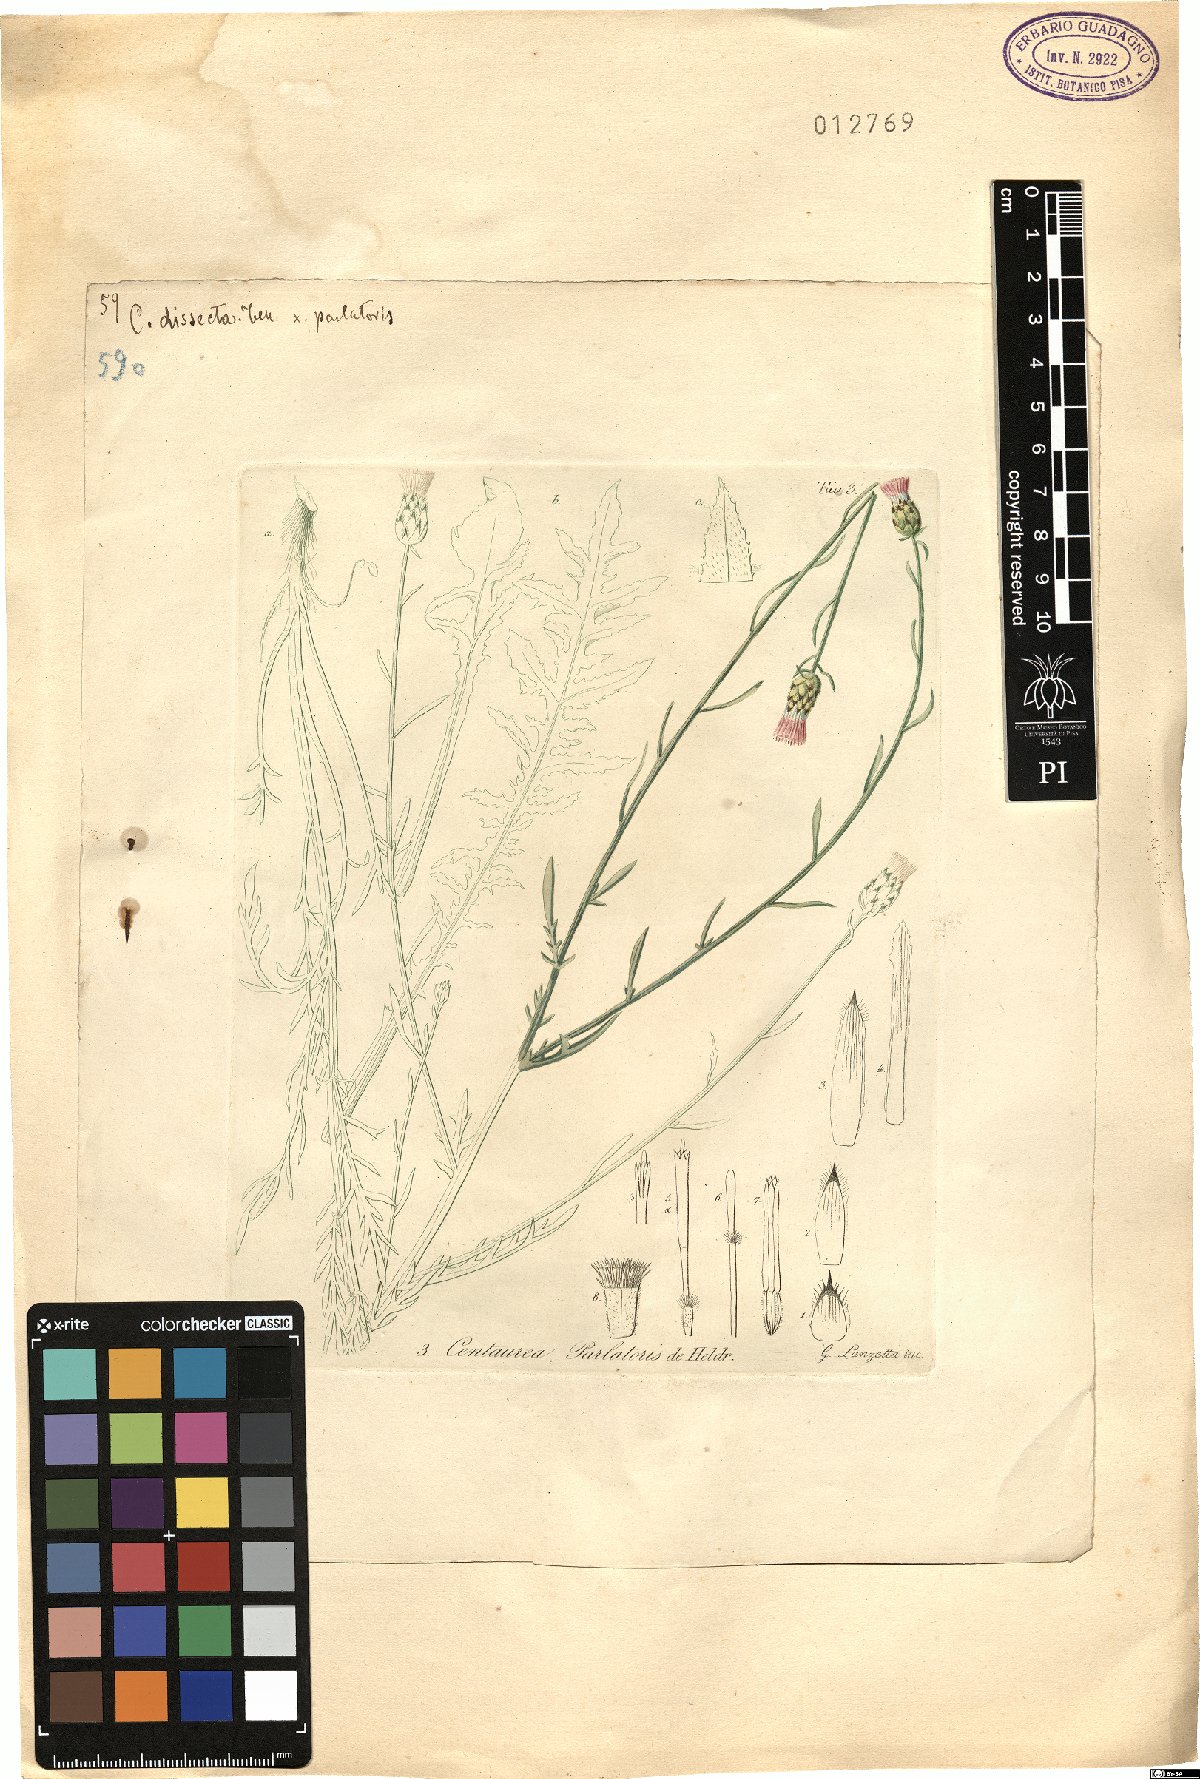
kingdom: Plantae
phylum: Tracheophyta
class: Magnoliopsida
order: Asterales
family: Asteraceae
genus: Centaurea
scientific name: Centaurea tenorei
